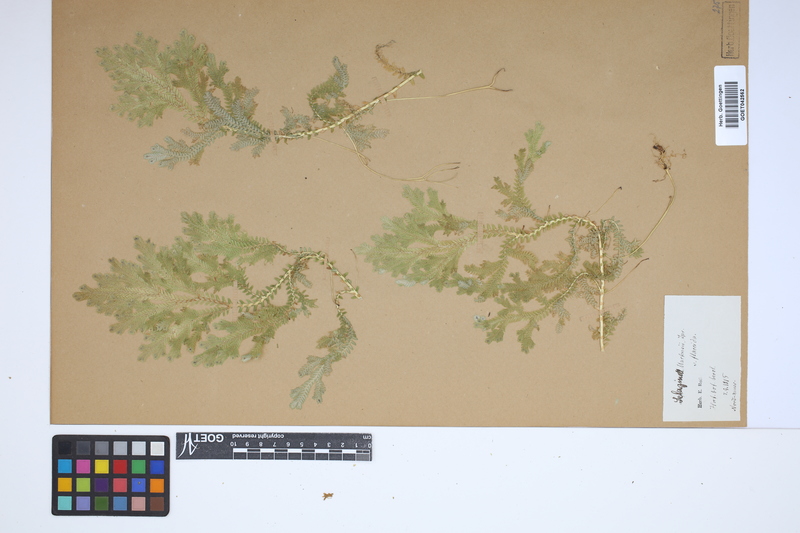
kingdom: Plantae
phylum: Tracheophyta
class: Lycopodiopsida
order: Selaginellales
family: Selaginellaceae
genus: Selaginella
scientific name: Selaginella martensii
